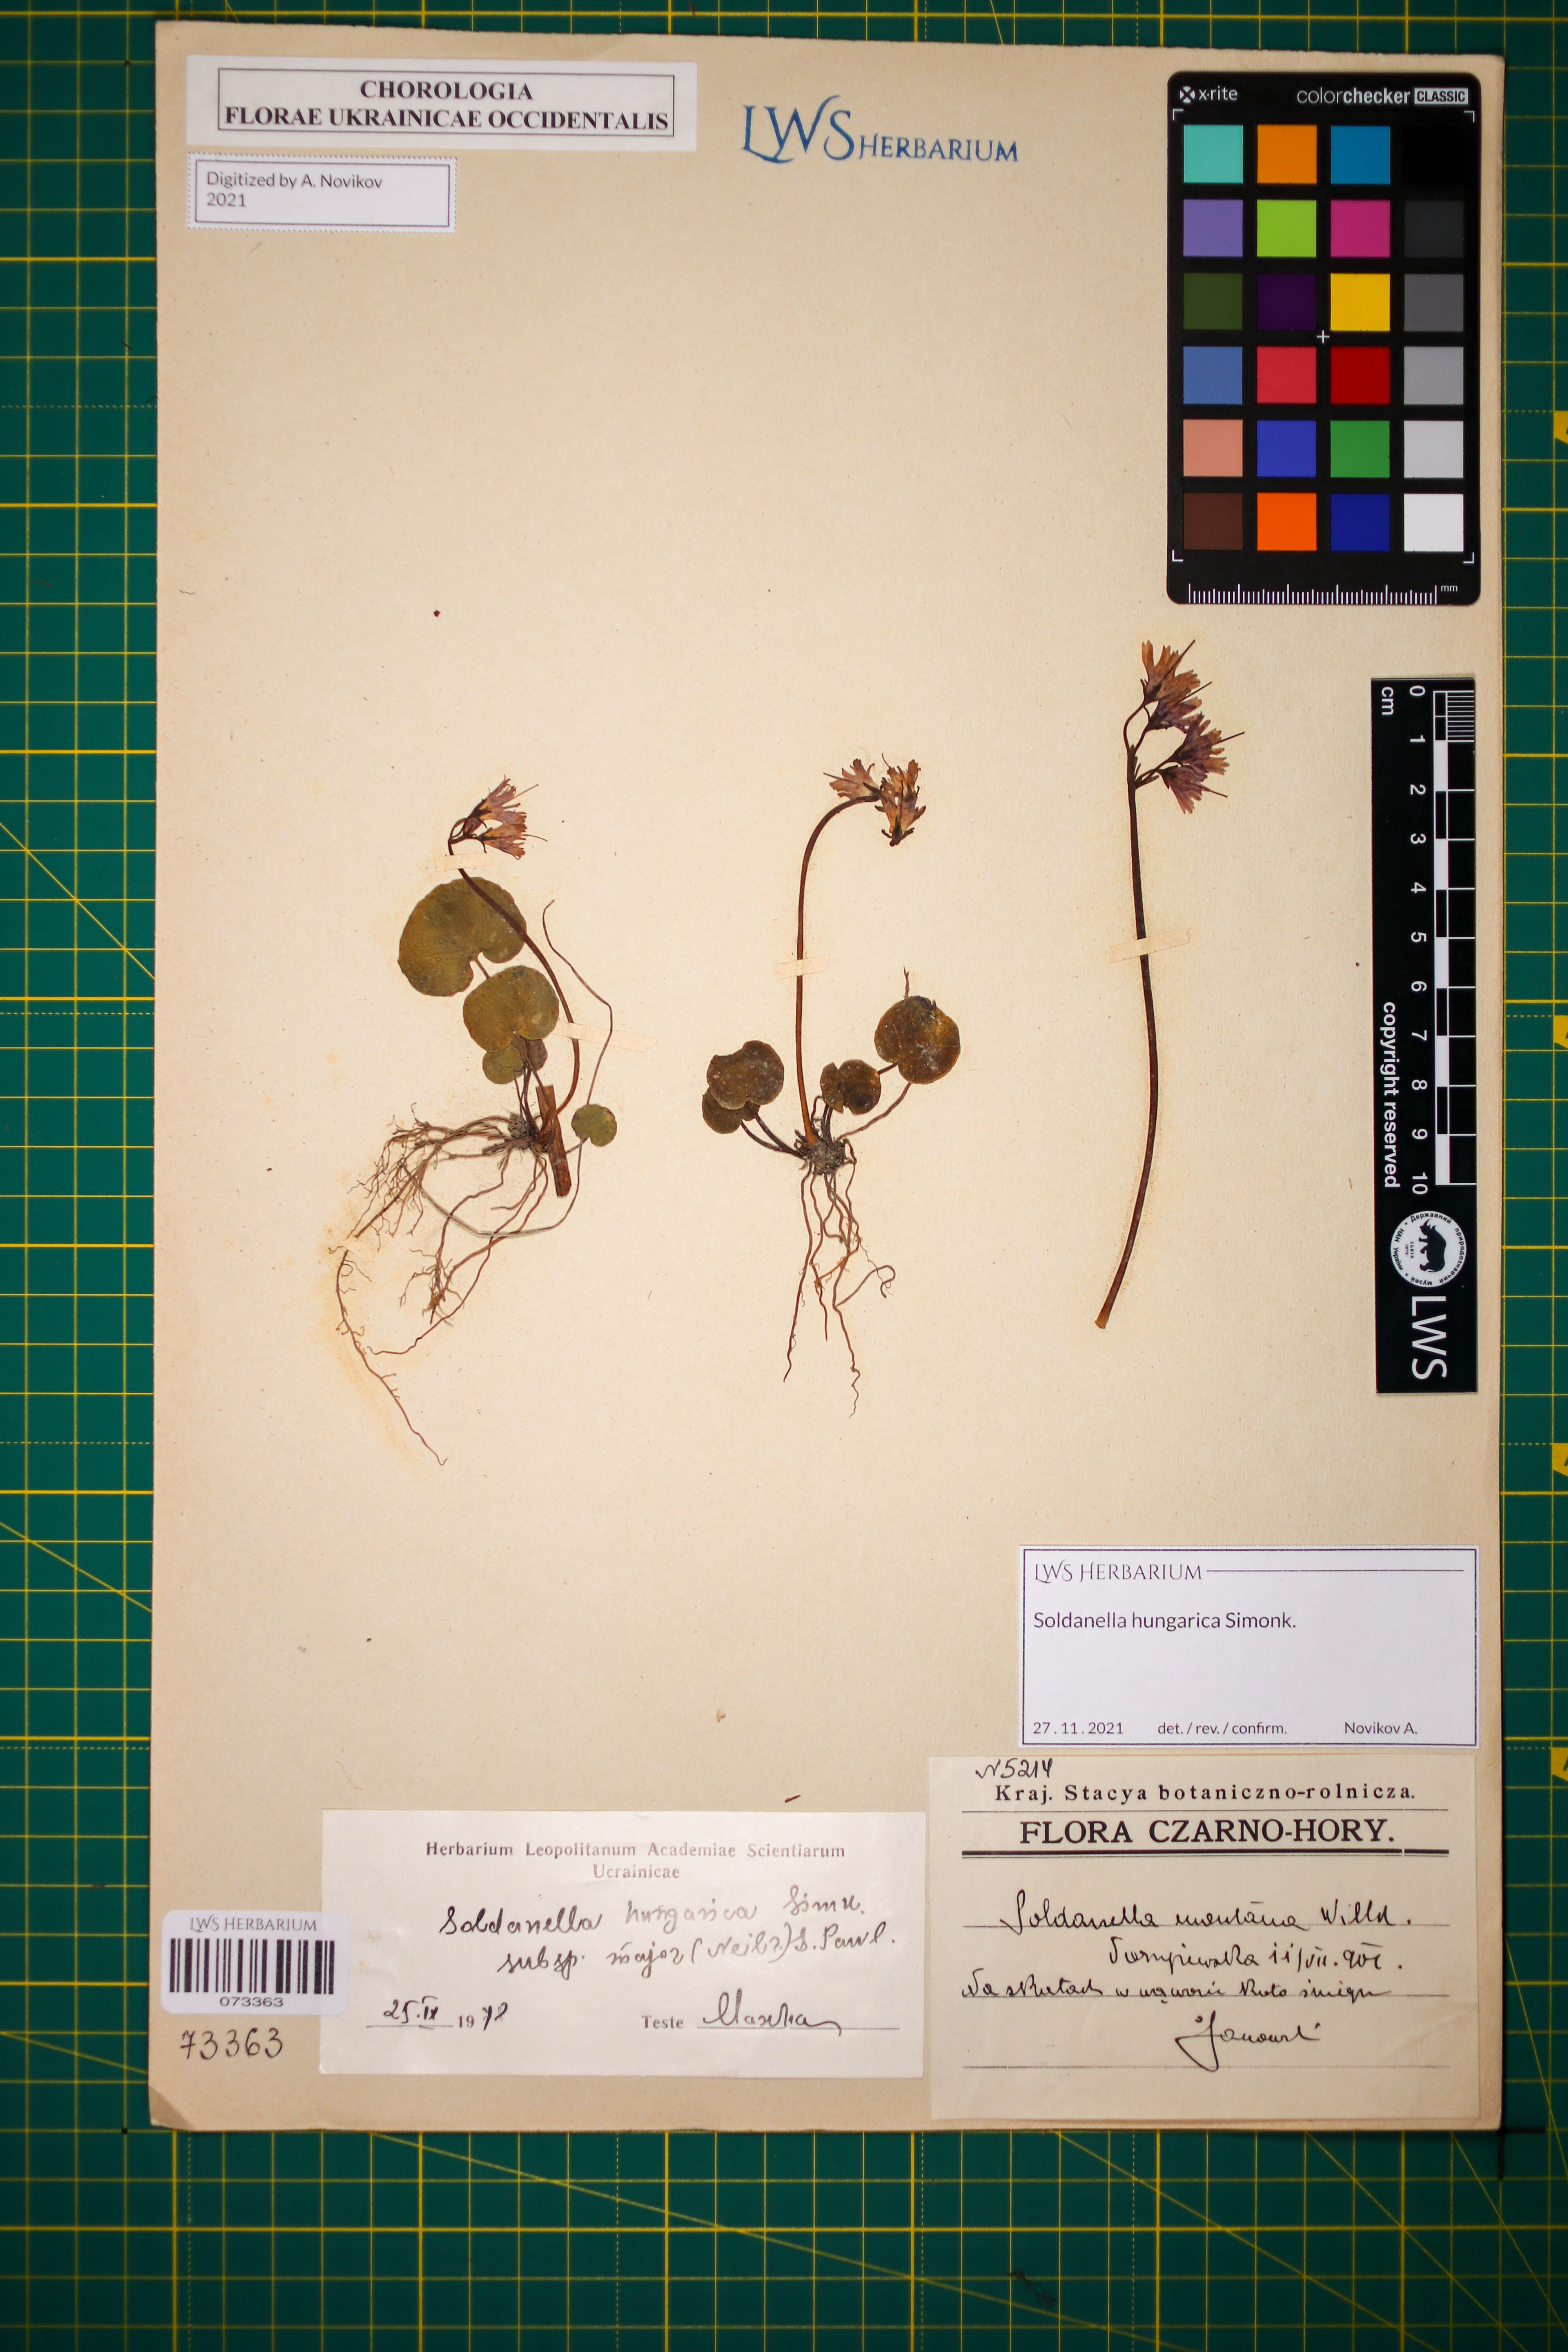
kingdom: Plantae
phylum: Tracheophyta
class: Magnoliopsida
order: Ericales
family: Primulaceae
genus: Soldanella
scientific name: Soldanella hungarica
